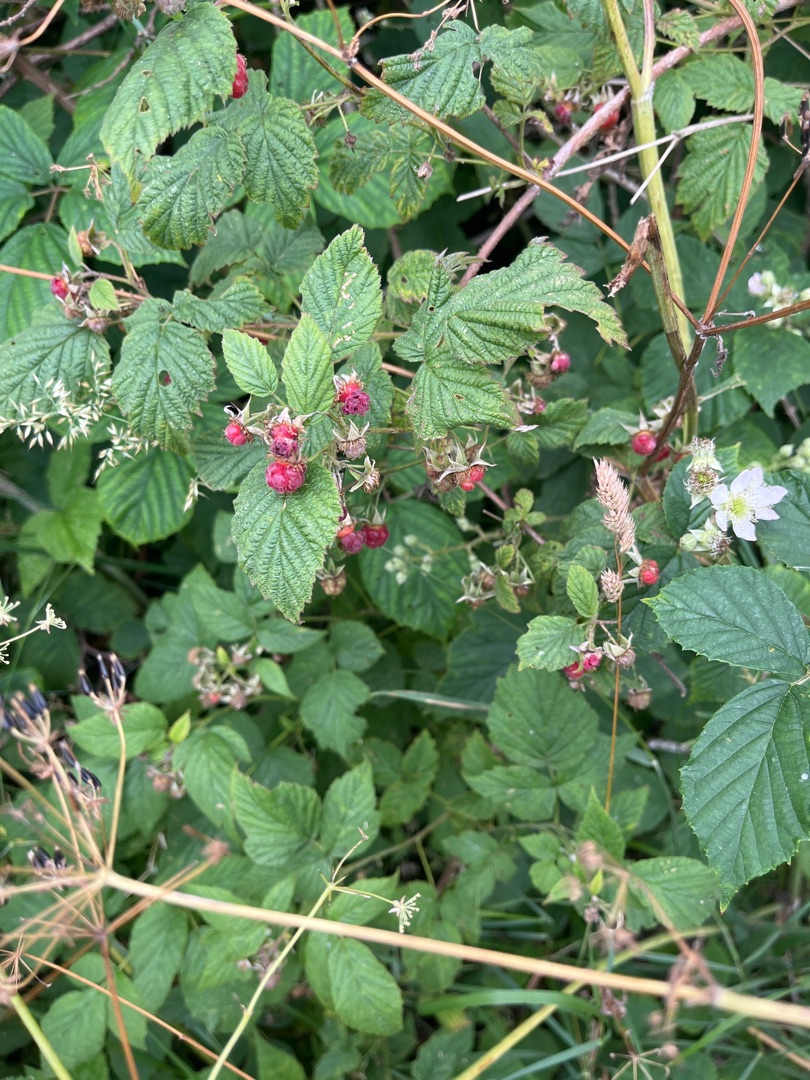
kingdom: Plantae
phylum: Tracheophyta
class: Magnoliopsida
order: Rosales
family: Rosaceae
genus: Rubus
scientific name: Rubus idaeus
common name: Hindbær
